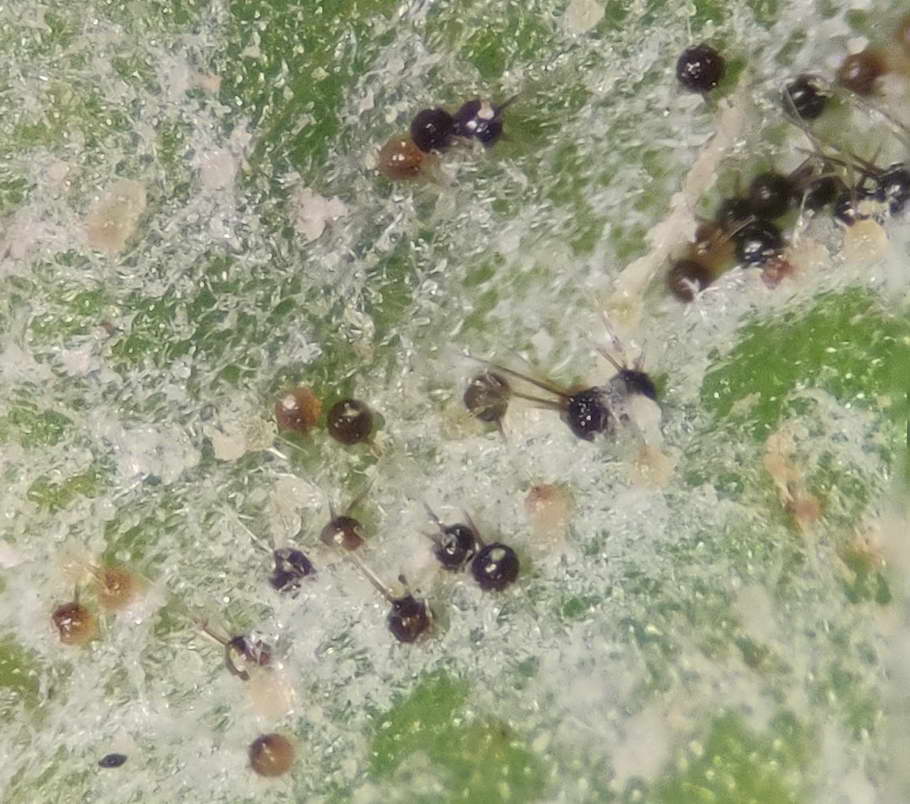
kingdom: Fungi
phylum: Ascomycota
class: Leotiomycetes
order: Helotiales
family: Erysiphaceae
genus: Podosphaera
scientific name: Podosphaera tridactyla
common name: Plum mildew
